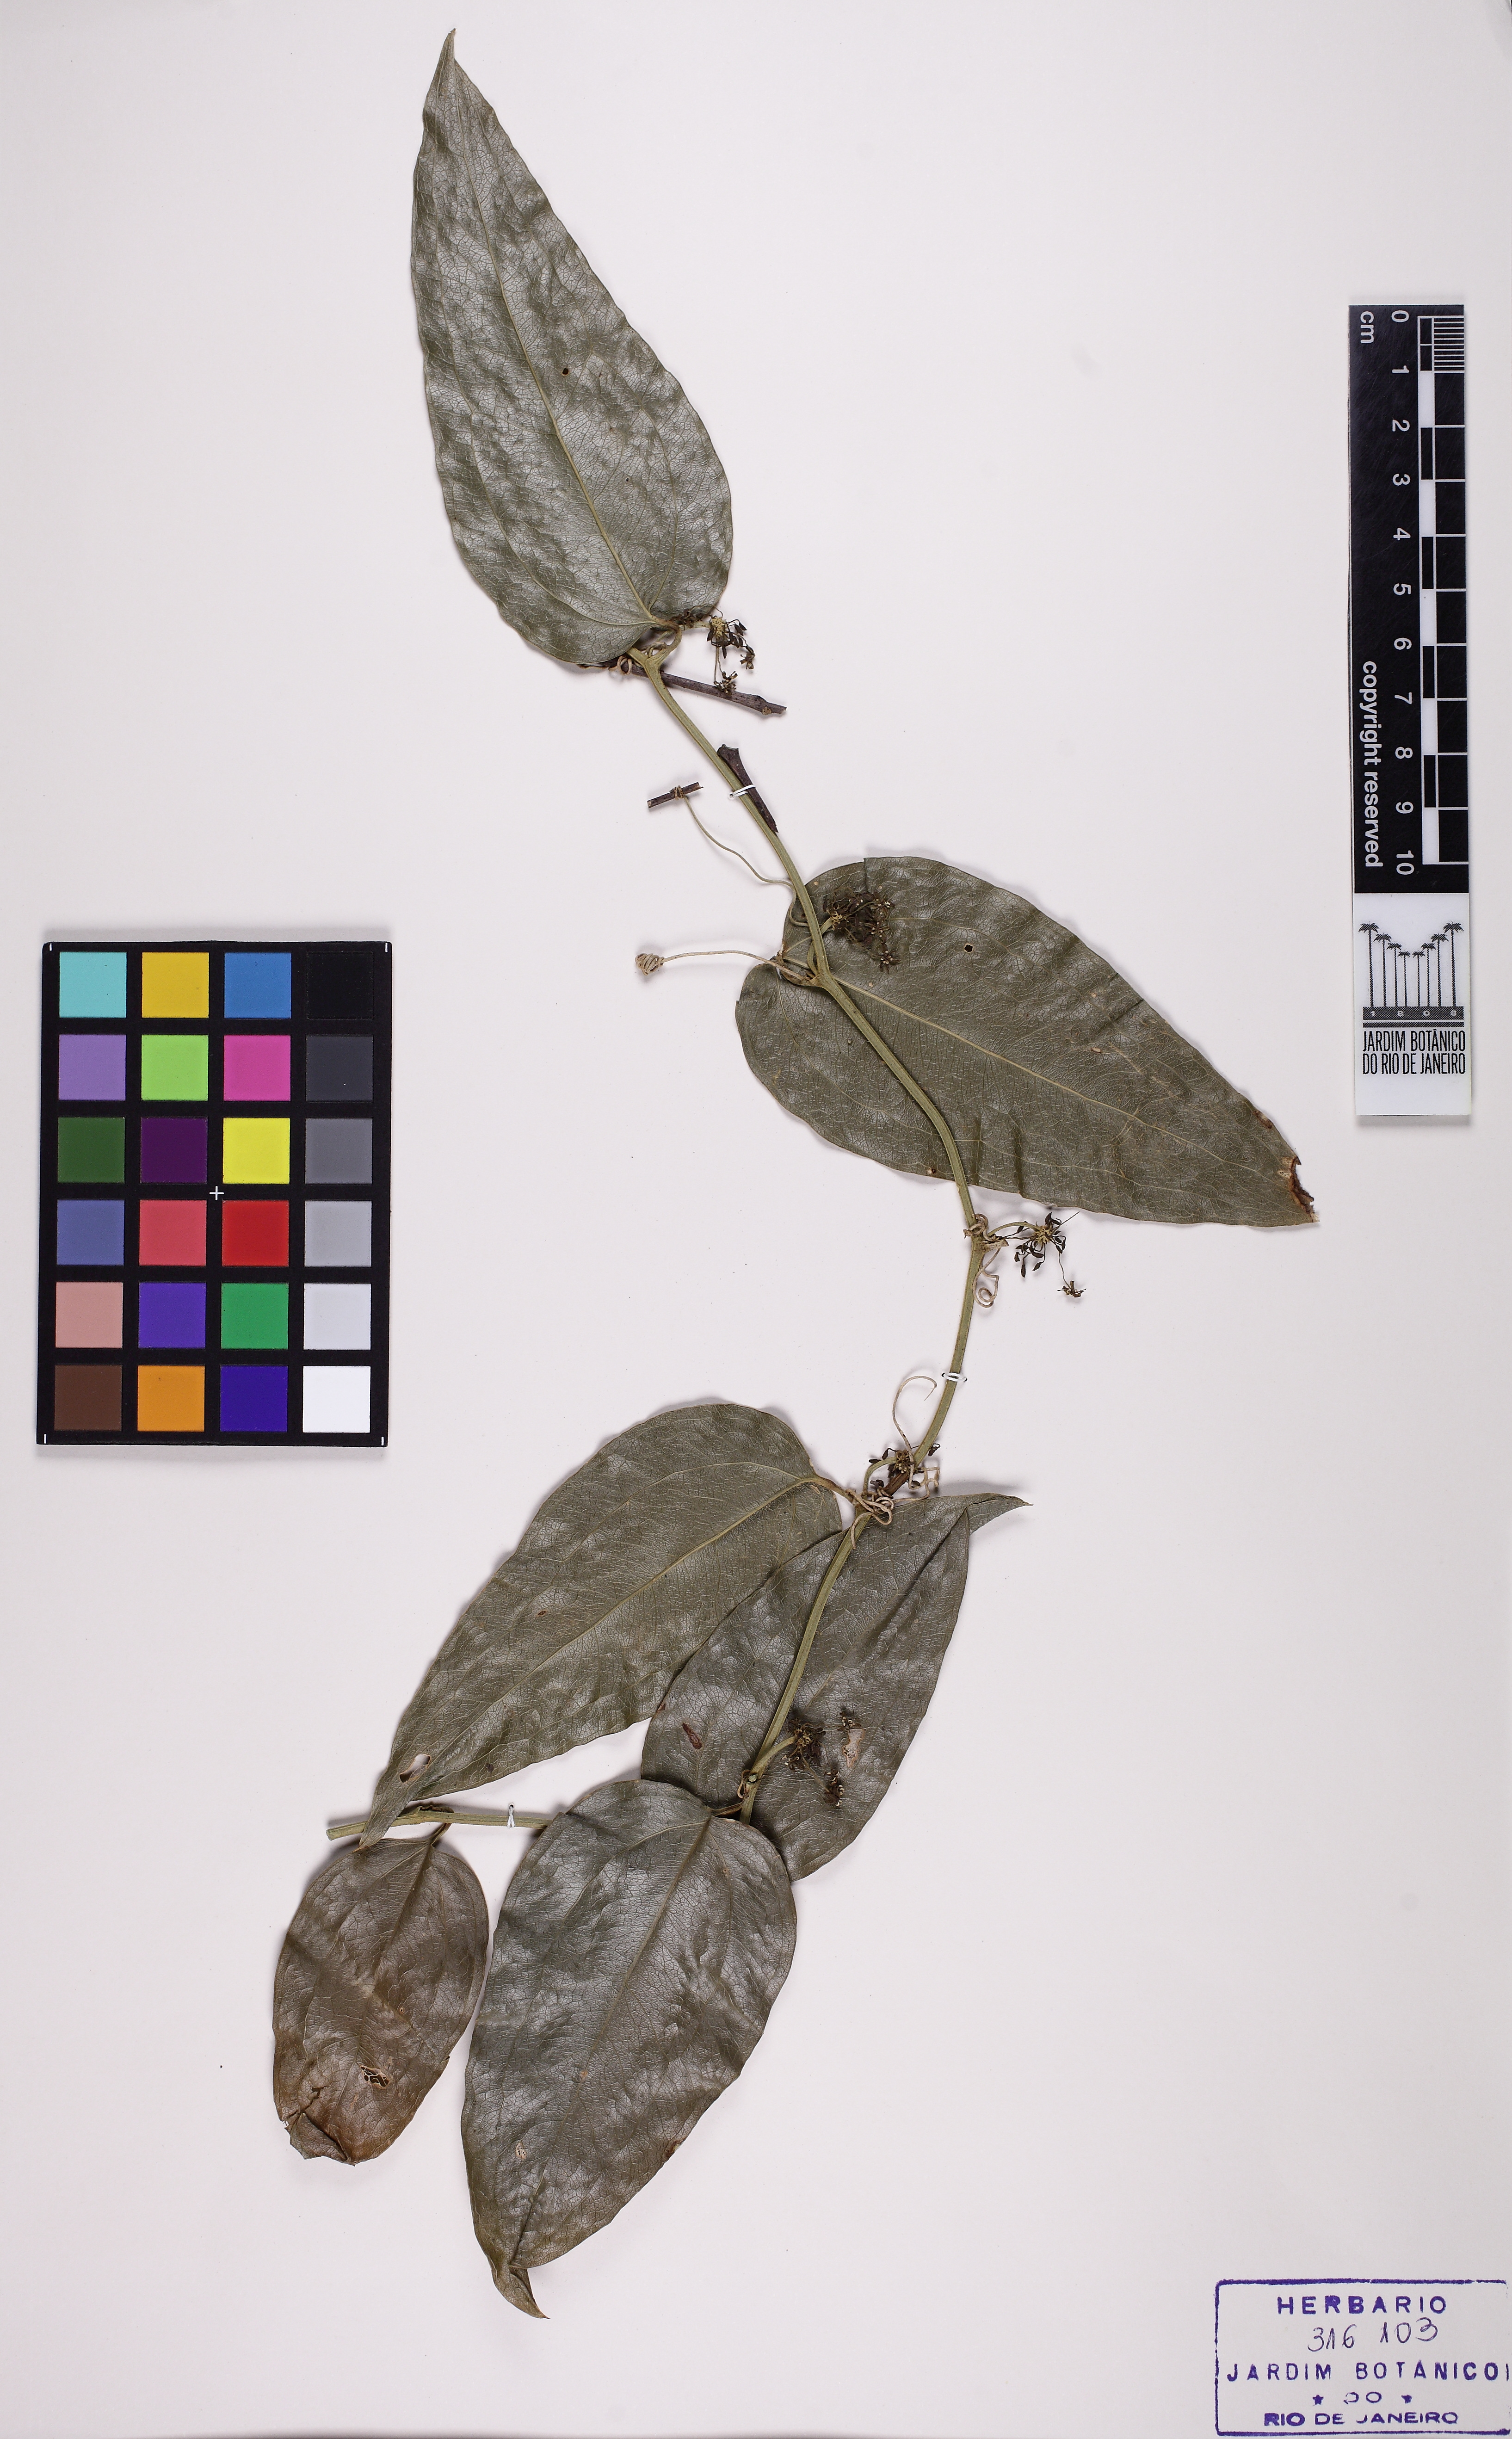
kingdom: Plantae
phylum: Tracheophyta
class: Liliopsida
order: Liliales
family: Smilacaceae
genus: Smilax
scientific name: Smilax
